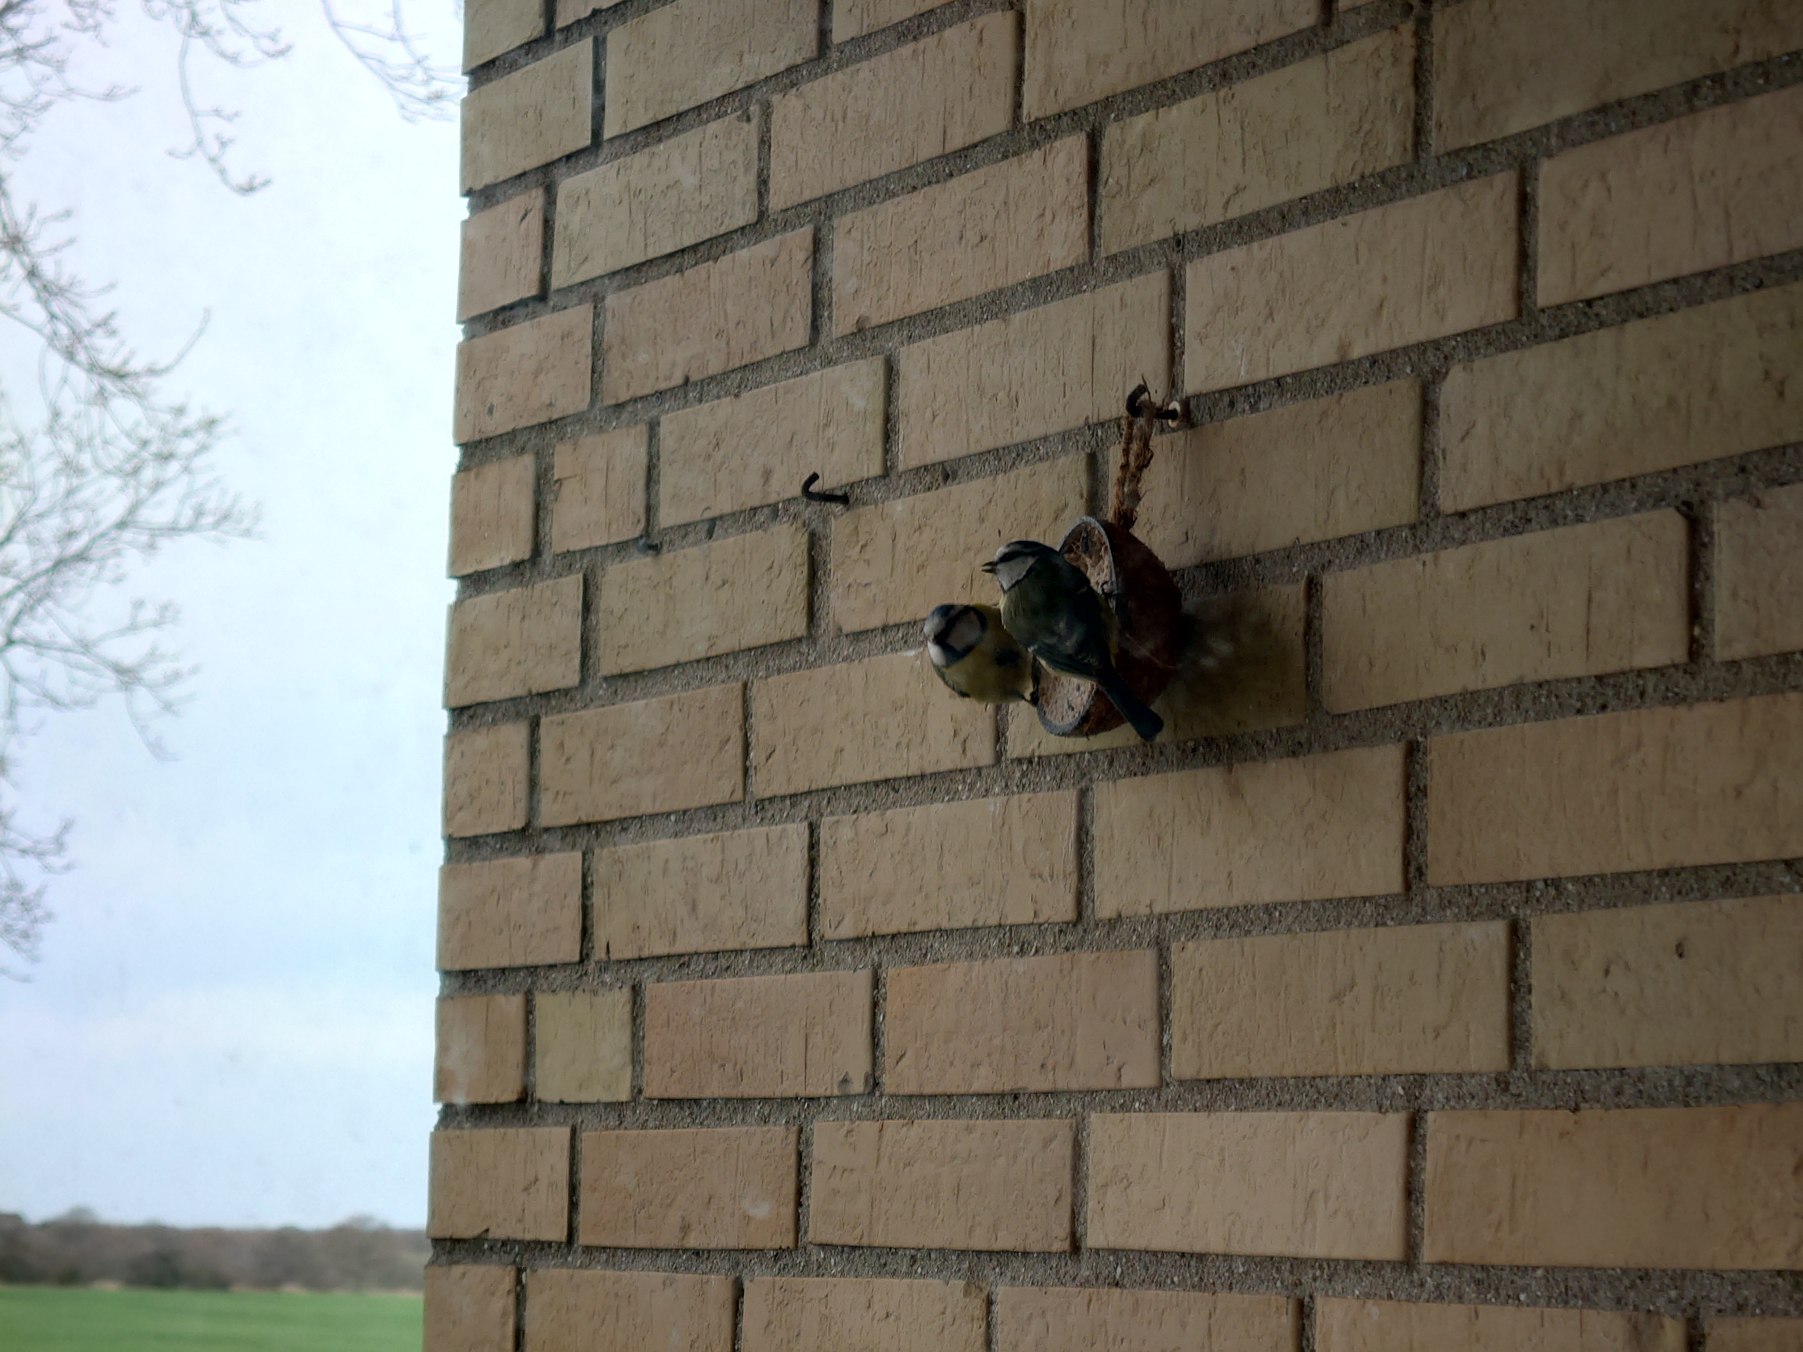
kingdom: Animalia
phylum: Chordata
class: Aves
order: Passeriformes
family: Paridae
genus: Cyanistes
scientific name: Cyanistes caeruleus
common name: Blåmejse
